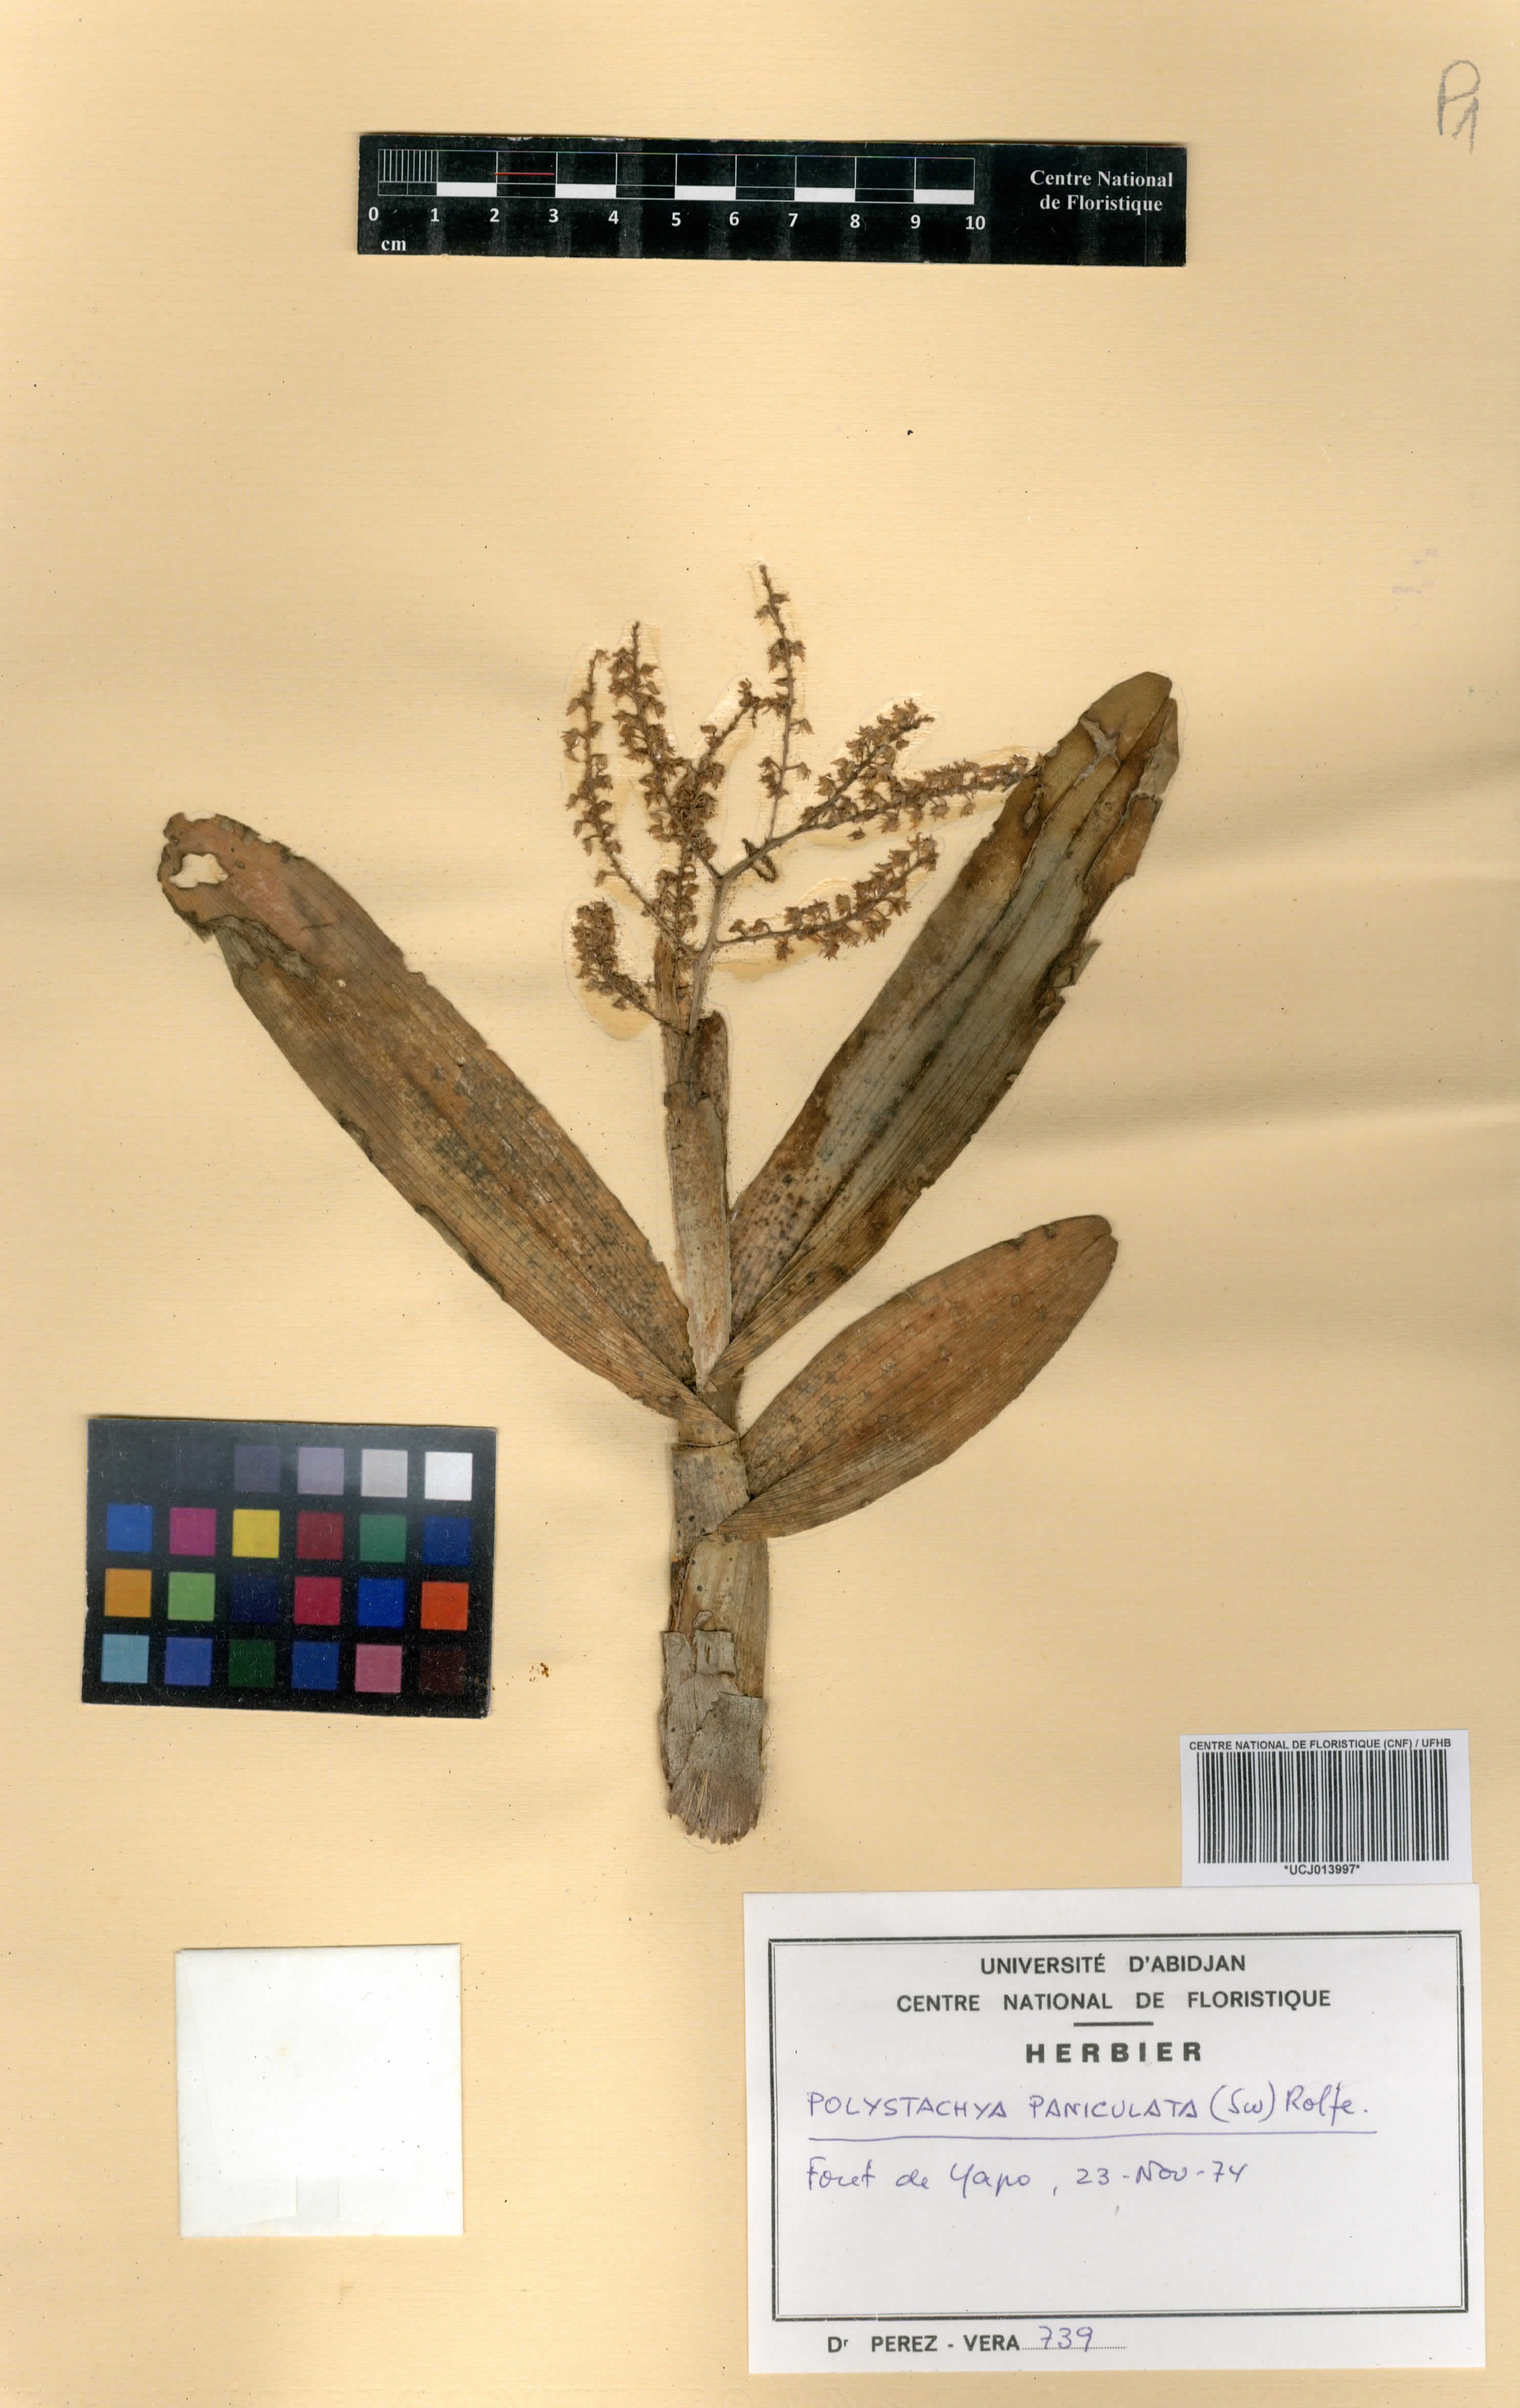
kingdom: Plantae
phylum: Tracheophyta
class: Liliopsida
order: Asparagales
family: Orchidaceae
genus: Polystachya
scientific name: Polystachya paniculata
